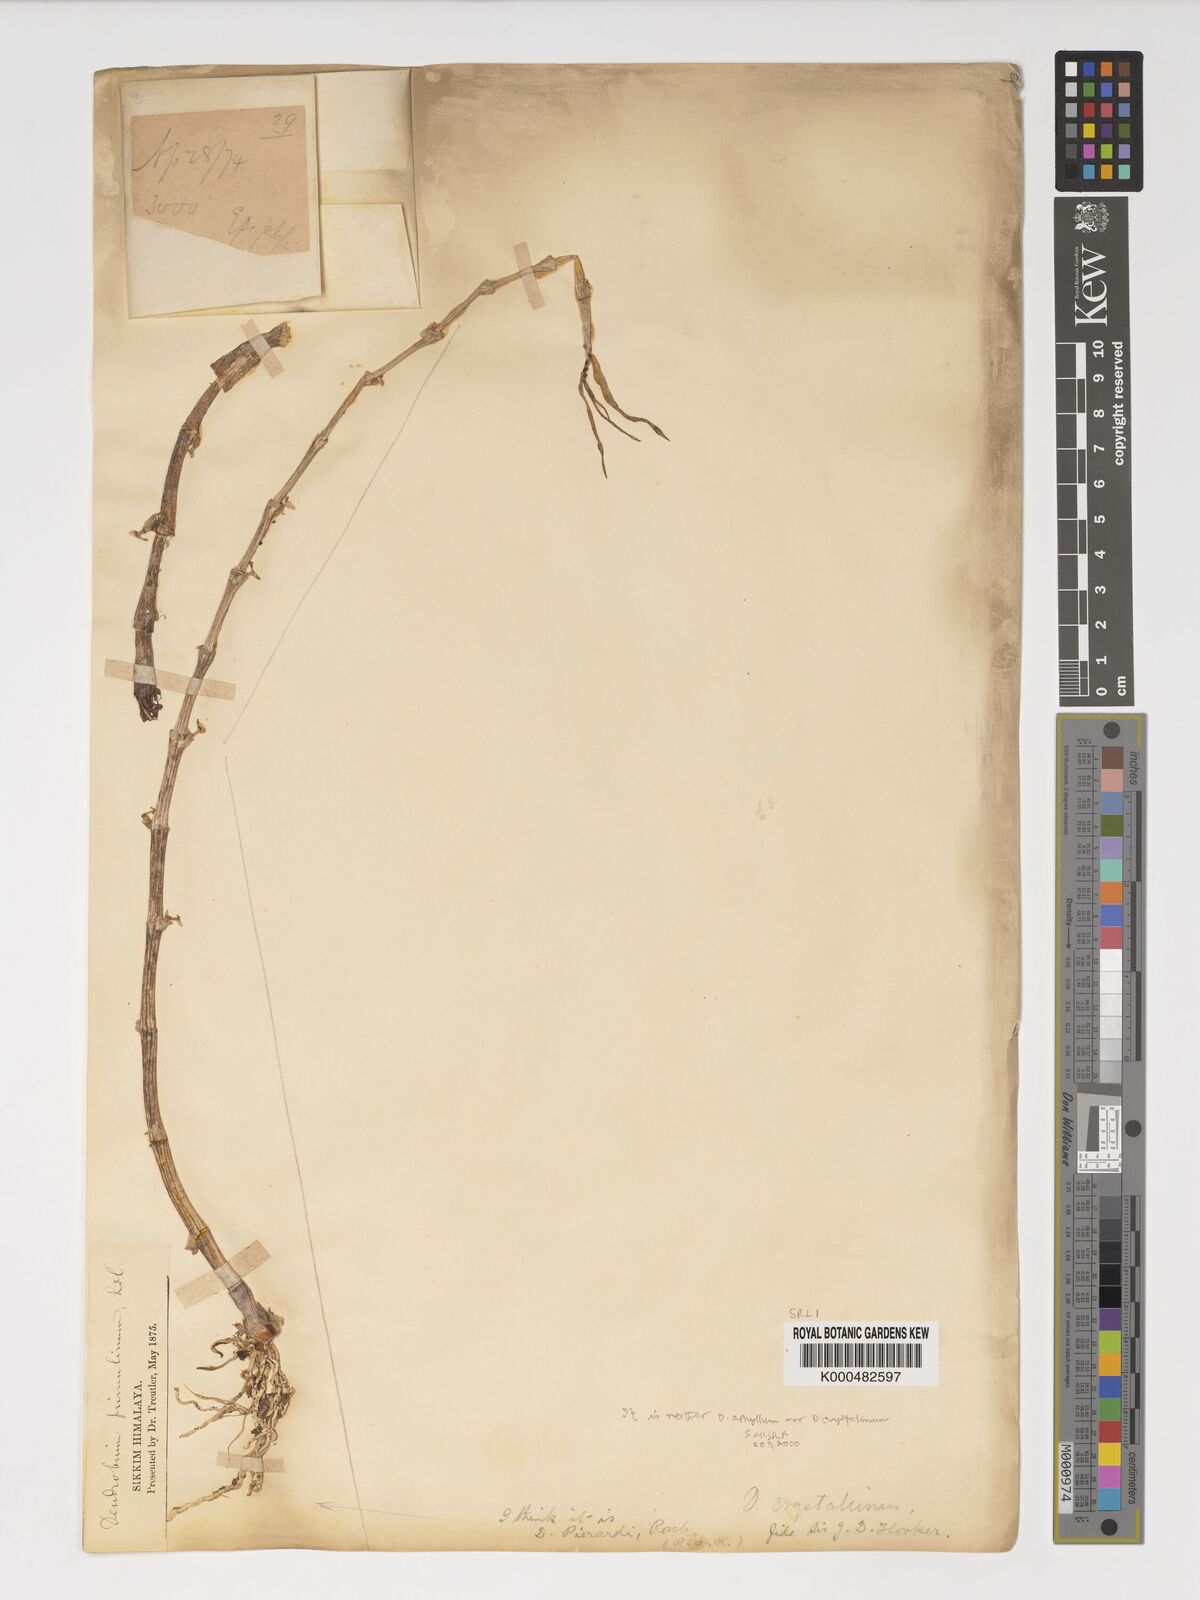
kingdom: Plantae
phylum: Tracheophyta
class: Liliopsida
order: Asparagales
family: Orchidaceae
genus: Dendrobium
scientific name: Dendrobium macrostachyum
